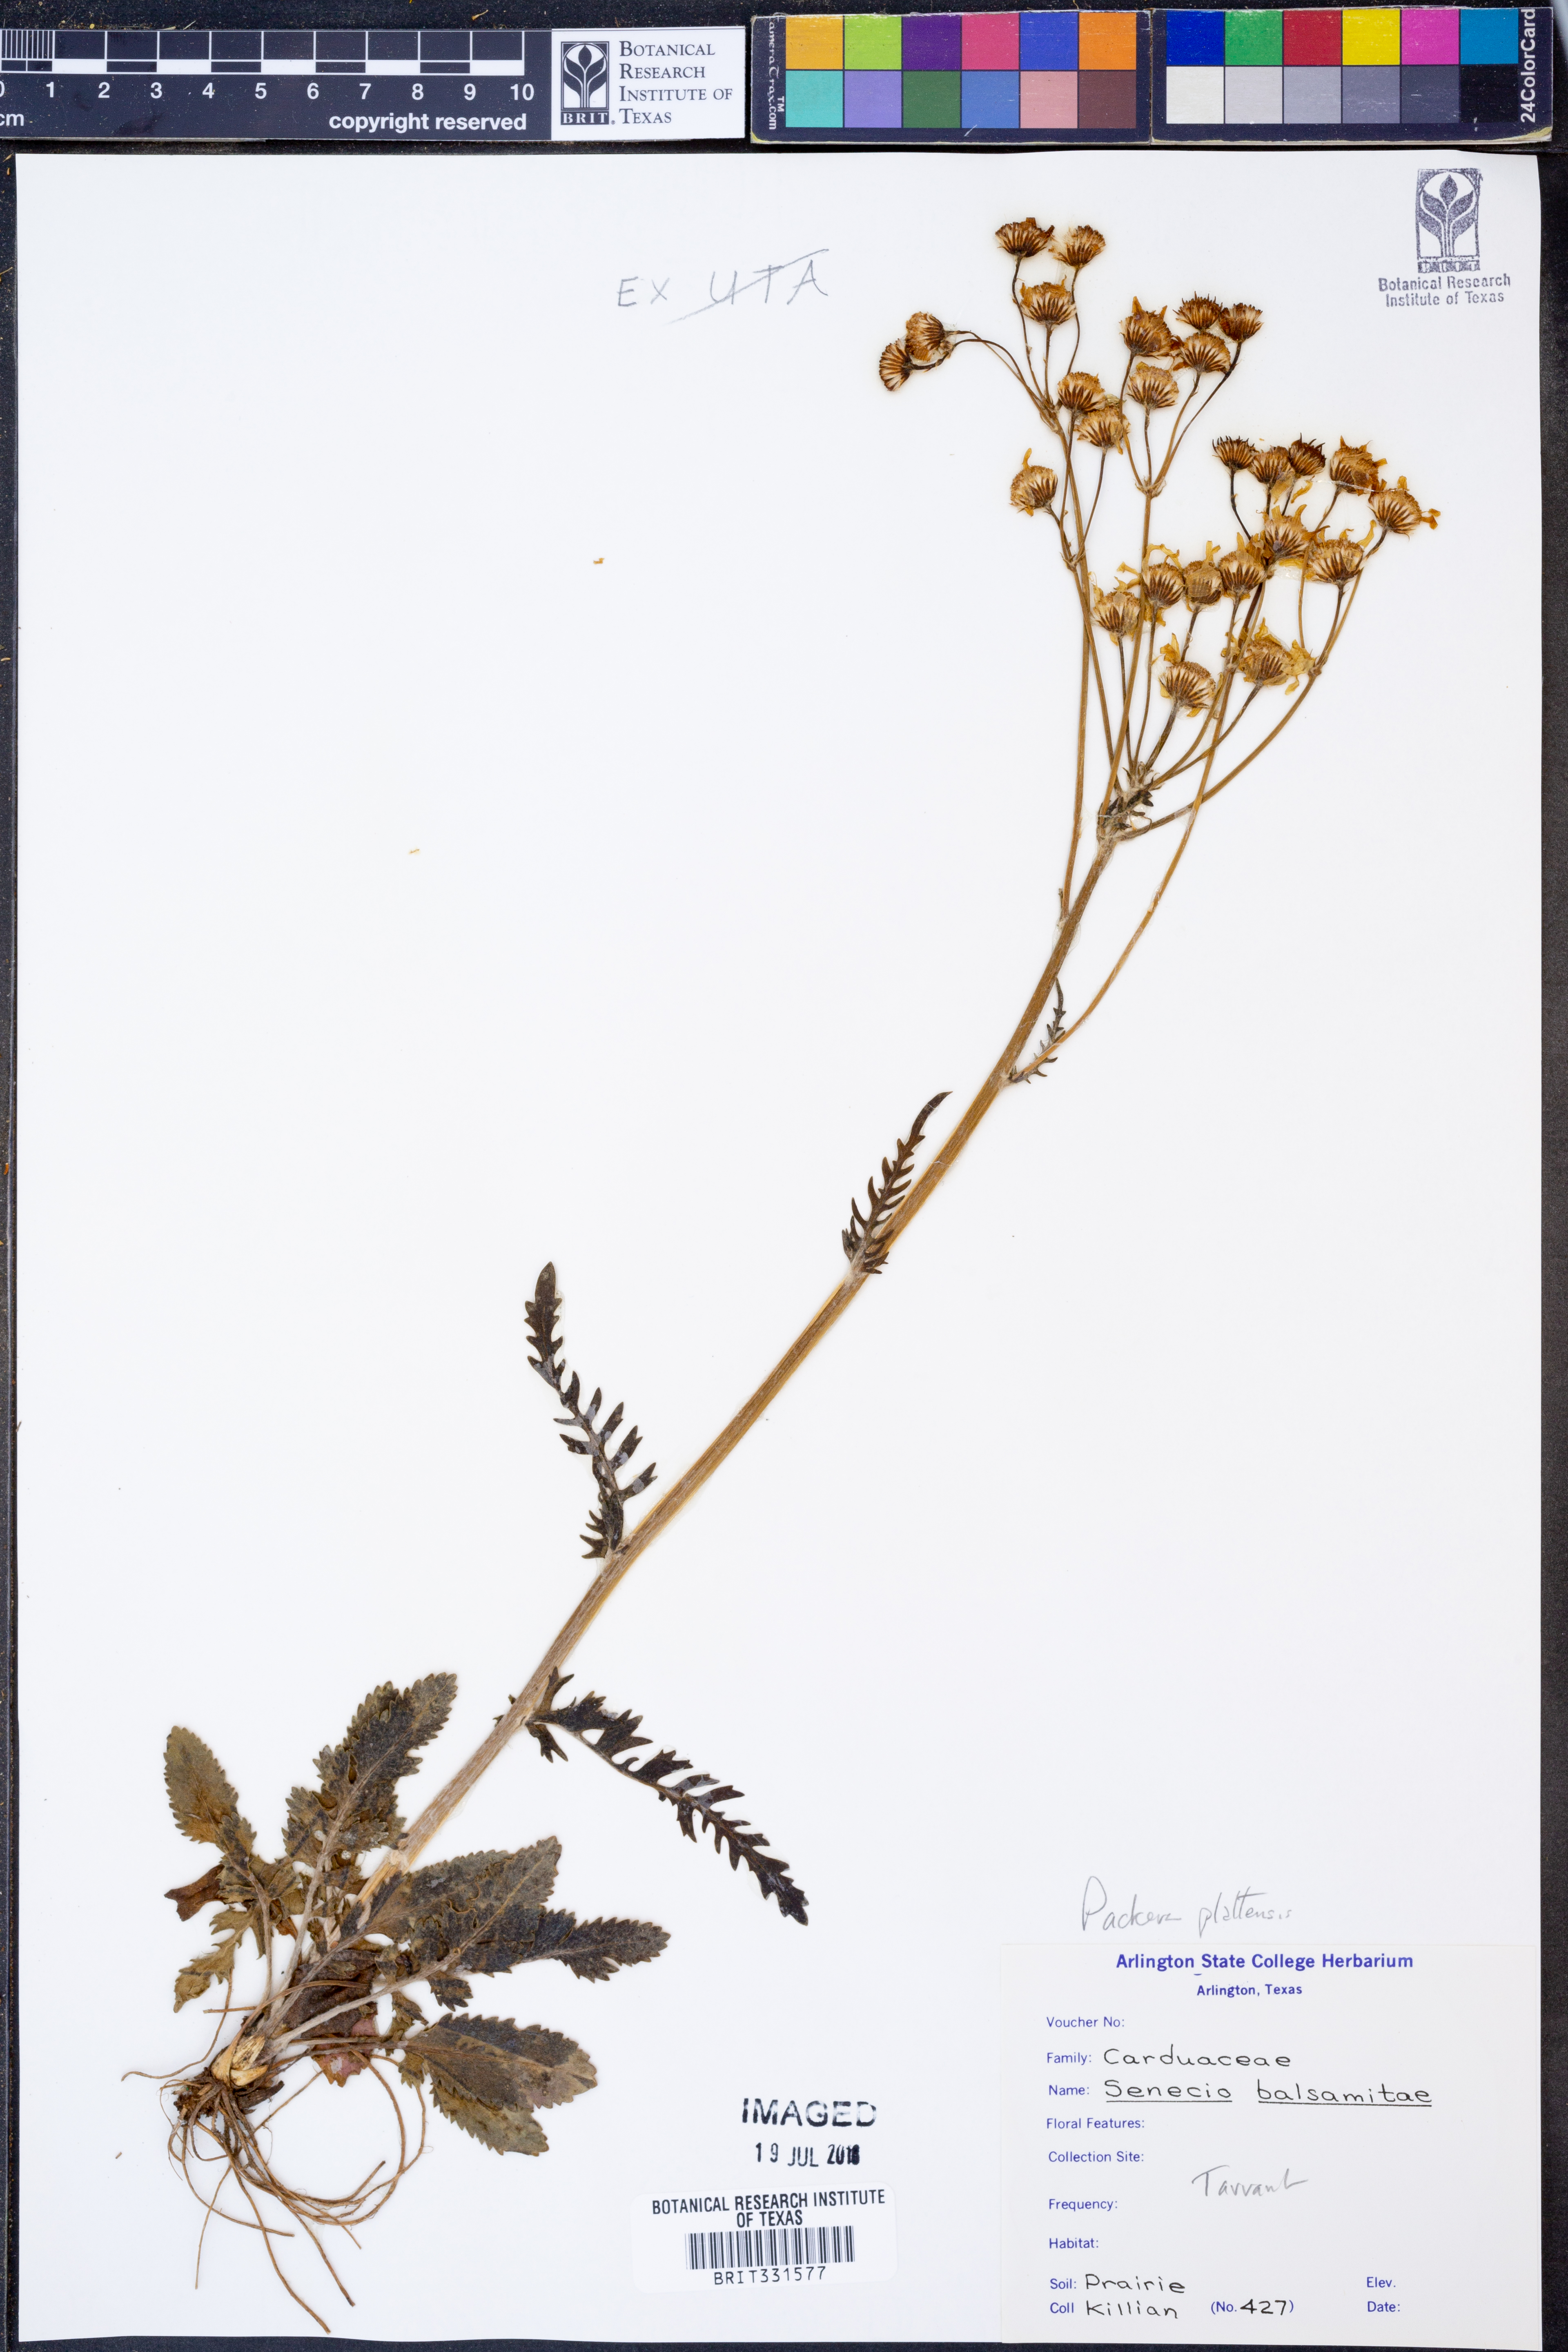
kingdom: Plantae
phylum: Tracheophyta
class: Magnoliopsida
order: Asterales
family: Asteraceae
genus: Packera
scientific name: Packera plattensis
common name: Prairie groundsel
